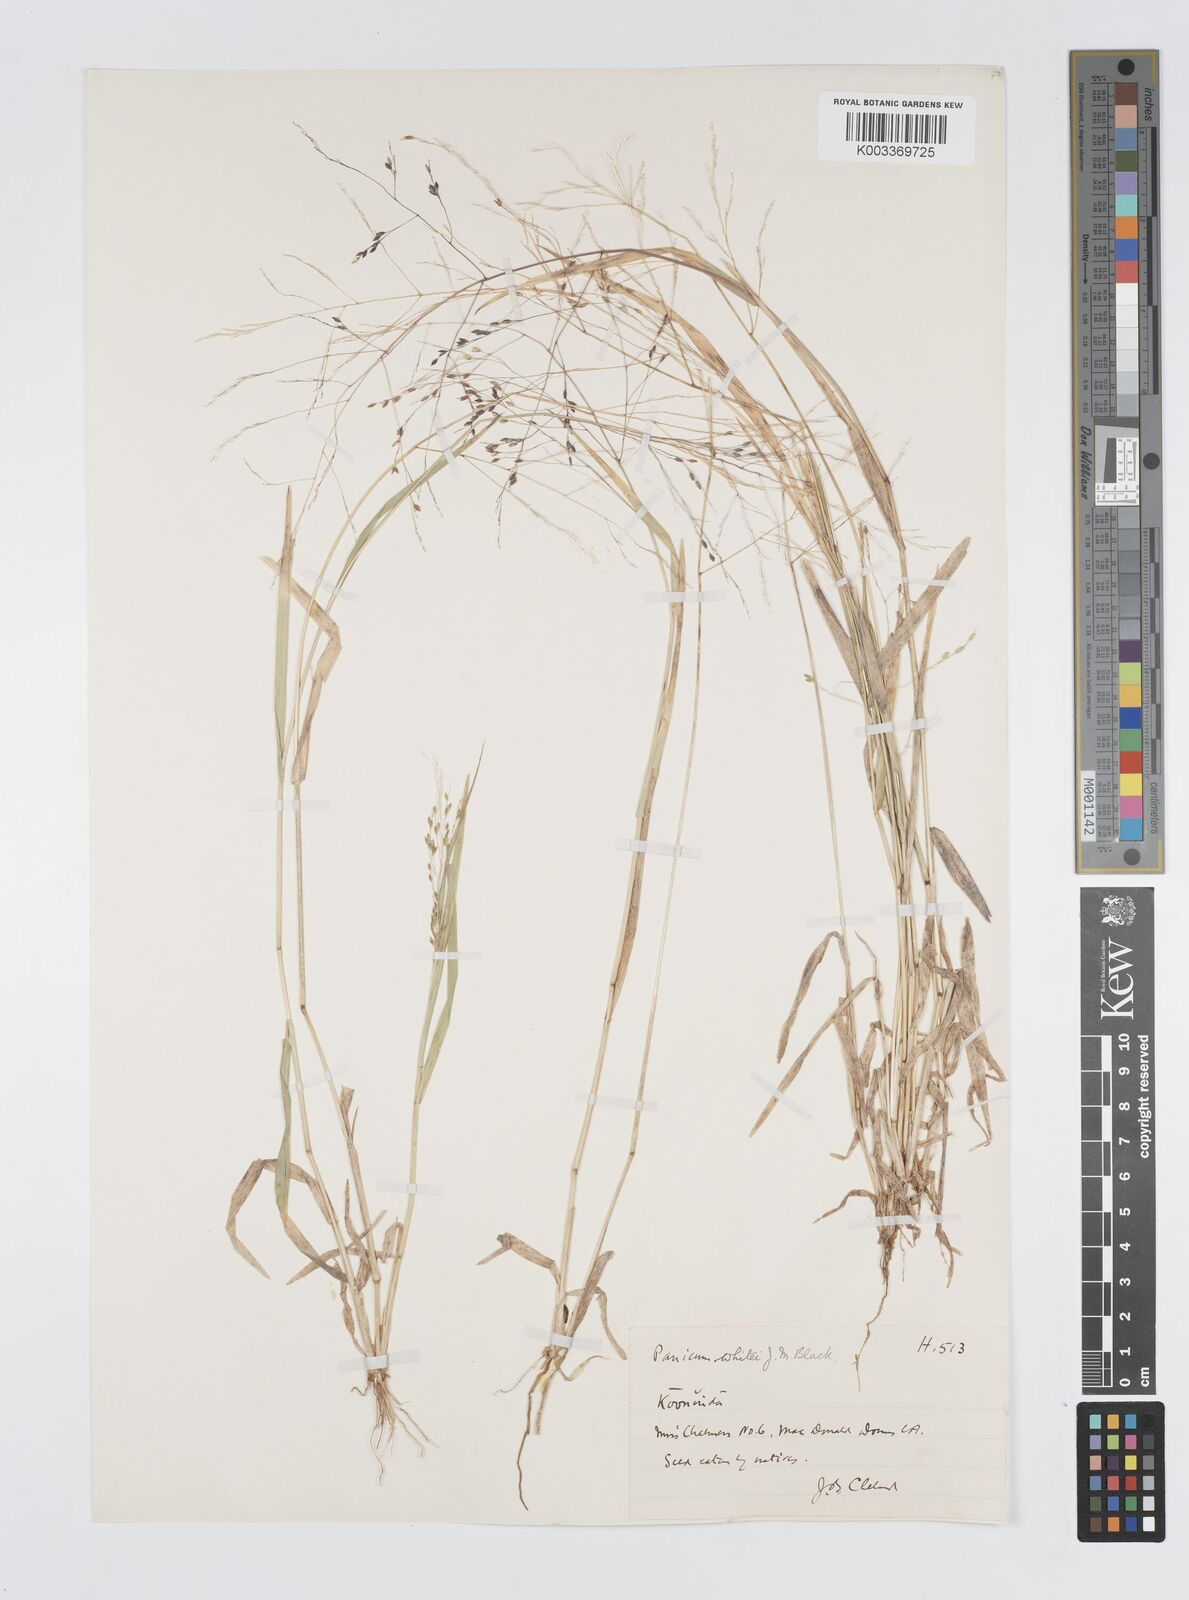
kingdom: Plantae
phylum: Tracheophyta
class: Liliopsida
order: Poales
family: Poaceae
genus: Panicum
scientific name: Panicum laevinode
